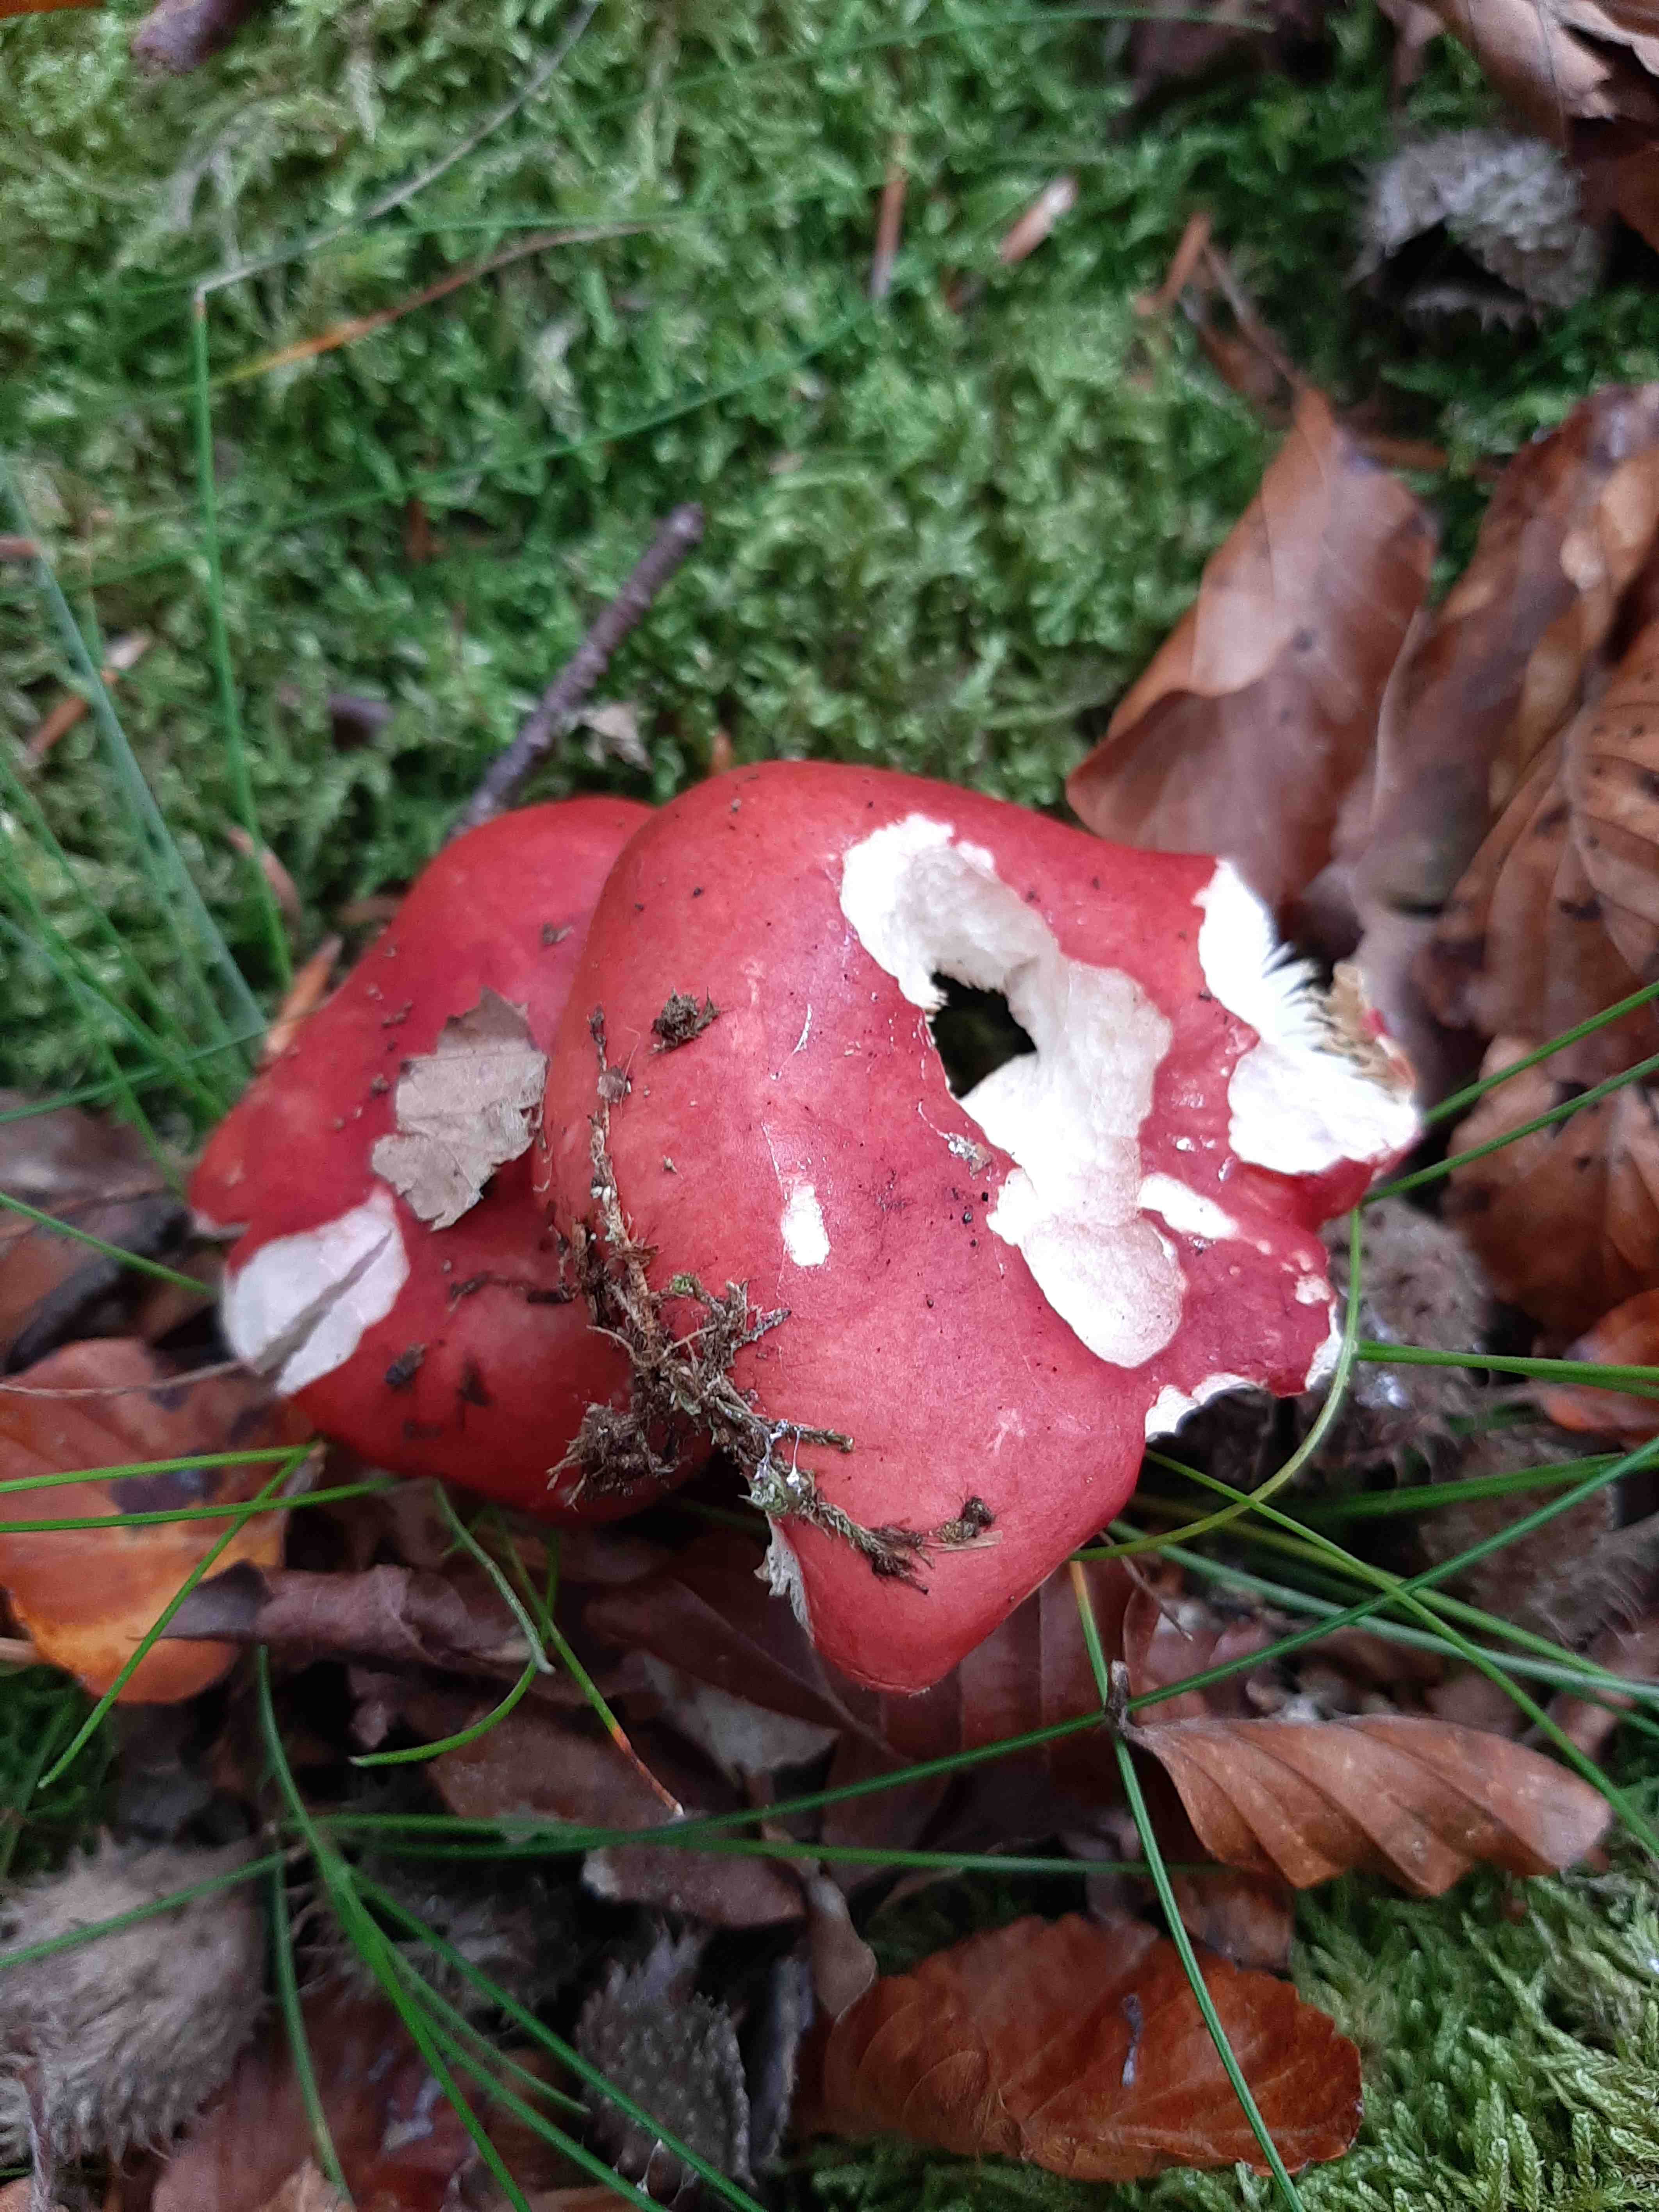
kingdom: Fungi
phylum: Basidiomycota
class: Agaricomycetes
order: Russulales
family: Russulaceae
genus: Russula
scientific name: Russula
